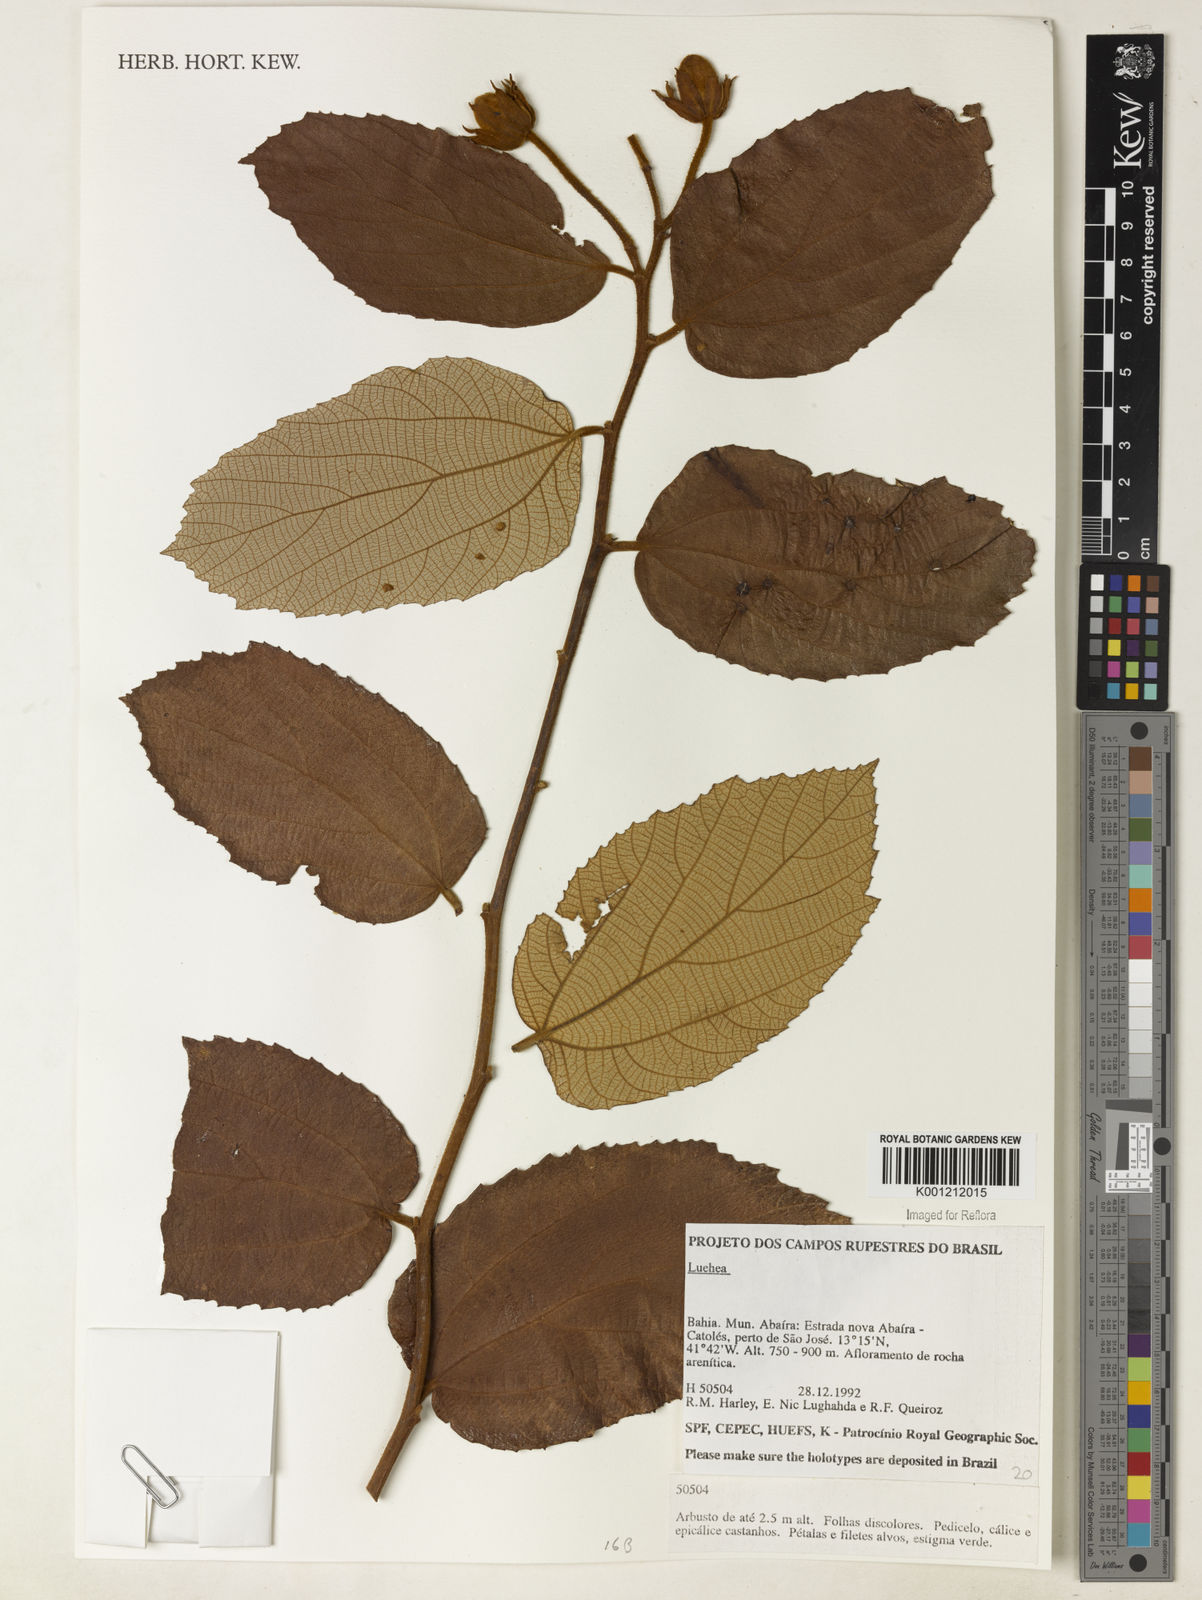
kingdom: Plantae
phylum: Tracheophyta
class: Magnoliopsida
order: Malvales
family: Malvaceae
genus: Luehea
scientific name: Luehea
